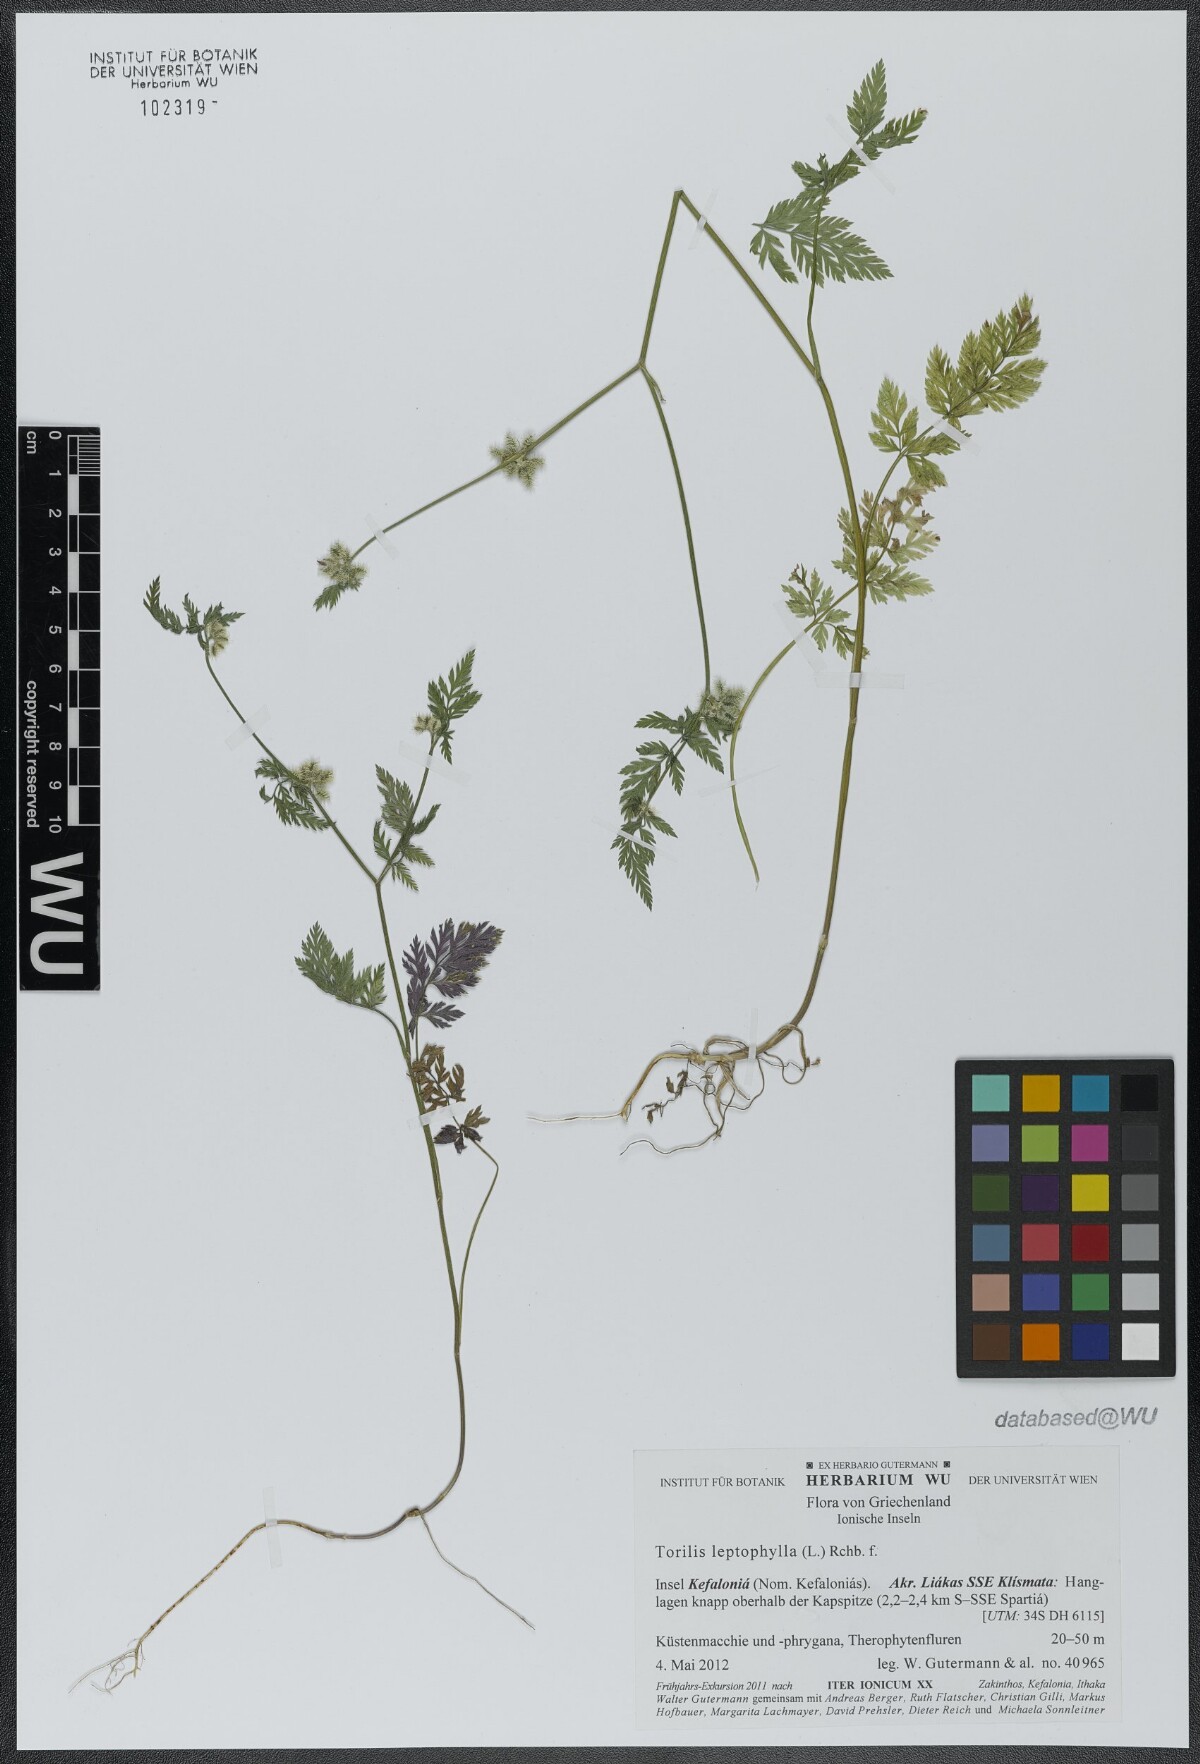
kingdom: Plantae
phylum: Tracheophyta
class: Magnoliopsida
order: Apiales
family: Apiaceae
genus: Torilis
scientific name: Torilis leptophylla
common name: Bristlefruit hedgeparsley
